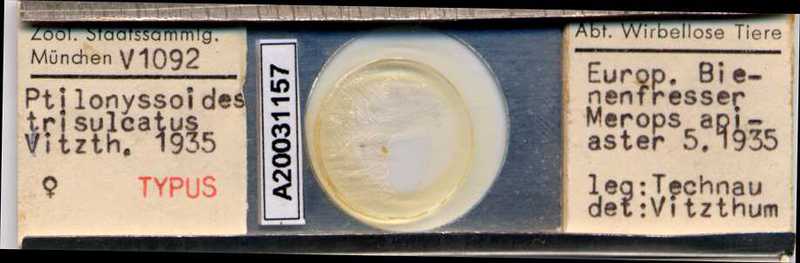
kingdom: Animalia
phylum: Arthropoda
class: Arachnida
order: Mesostigmata
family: Rhinonyssidae
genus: Ptilonyssus
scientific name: Ptilonyssus triscutatus
